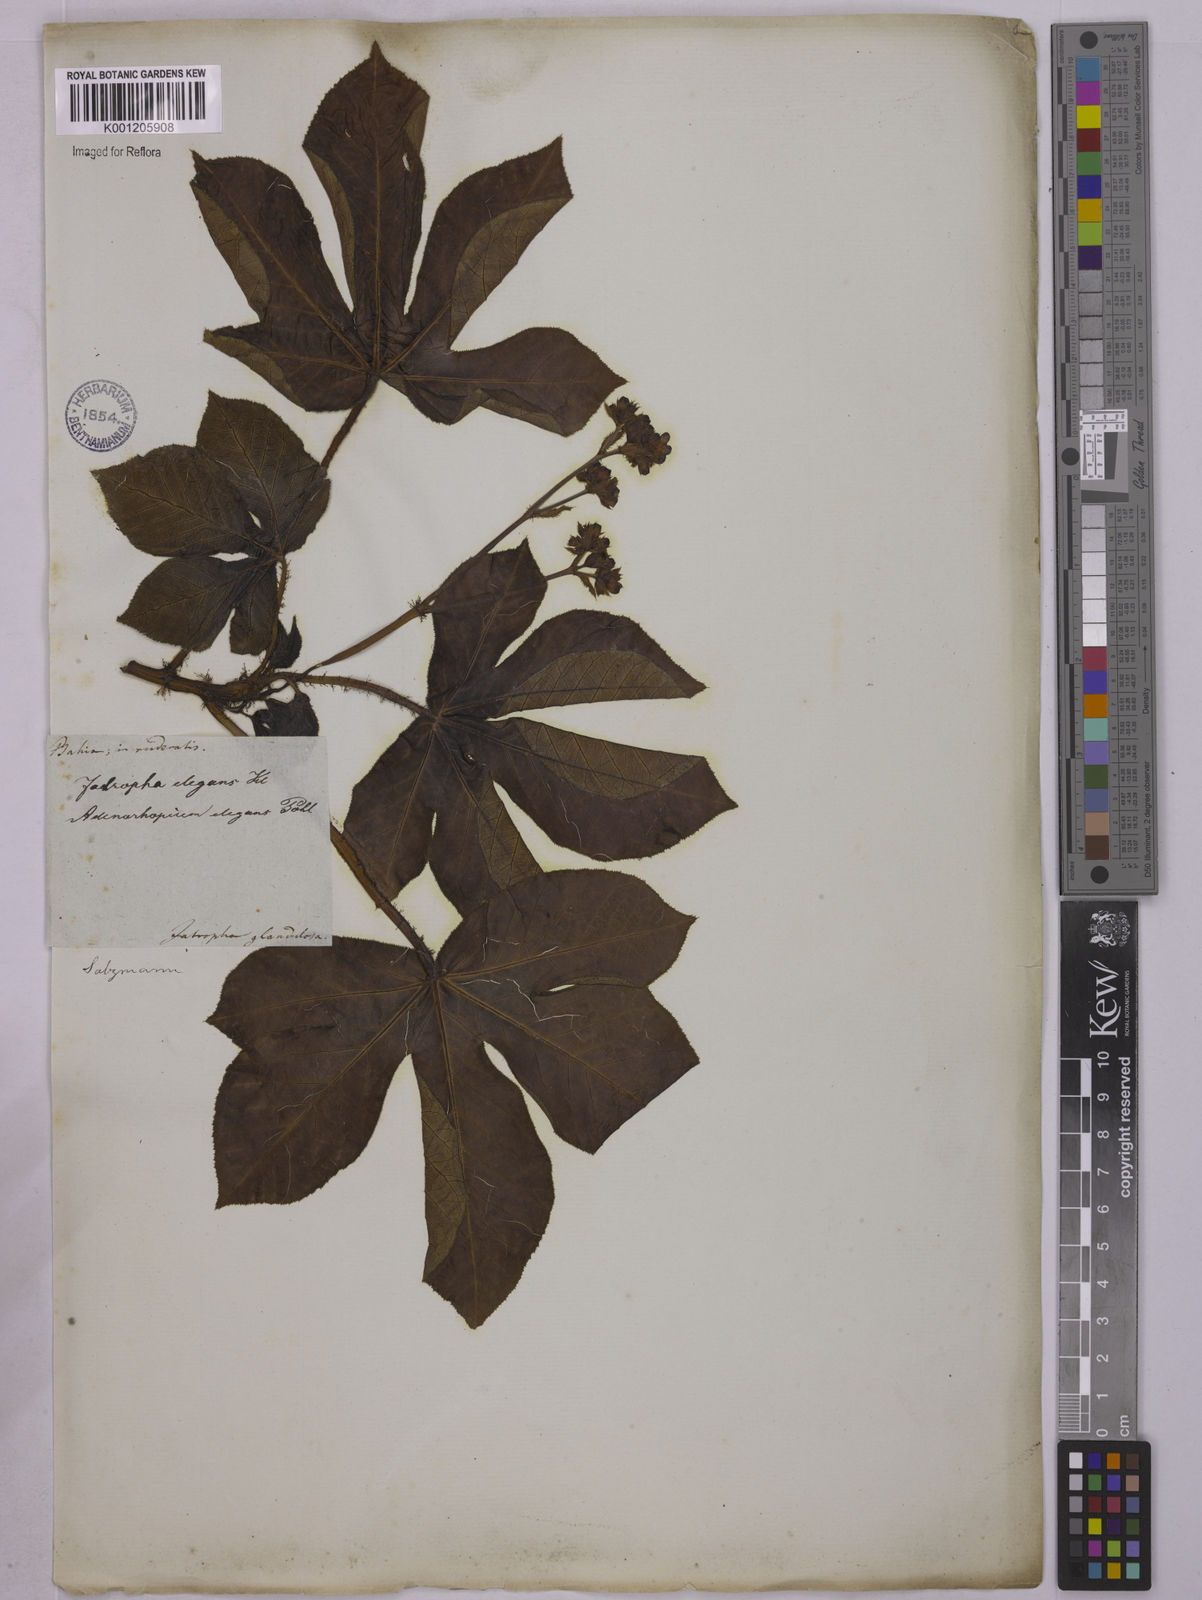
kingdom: Plantae
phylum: Tracheophyta
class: Magnoliopsida
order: Malpighiales
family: Euphorbiaceae
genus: Jatropha
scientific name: Jatropha gossypiifolia
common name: Bellyache bush
